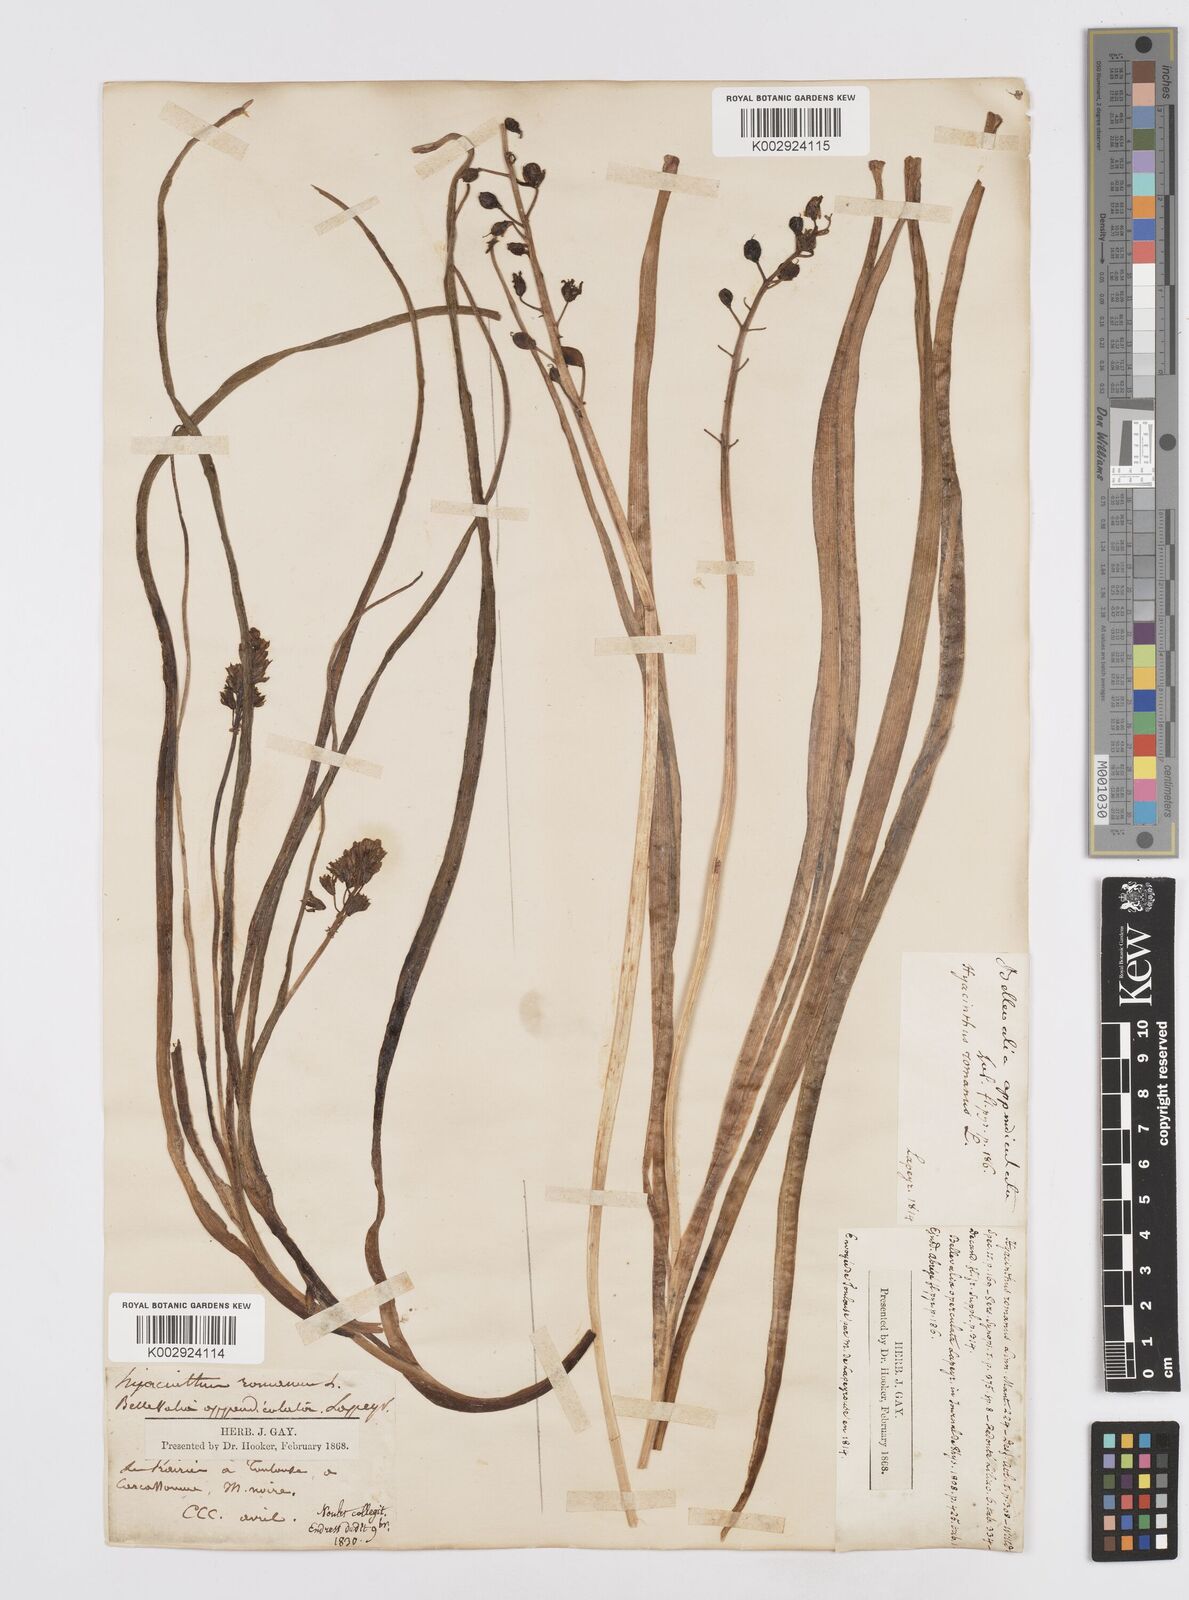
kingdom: Plantae
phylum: Tracheophyta
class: Liliopsida
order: Asparagales
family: Asparagaceae
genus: Bellevalia
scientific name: Bellevalia
